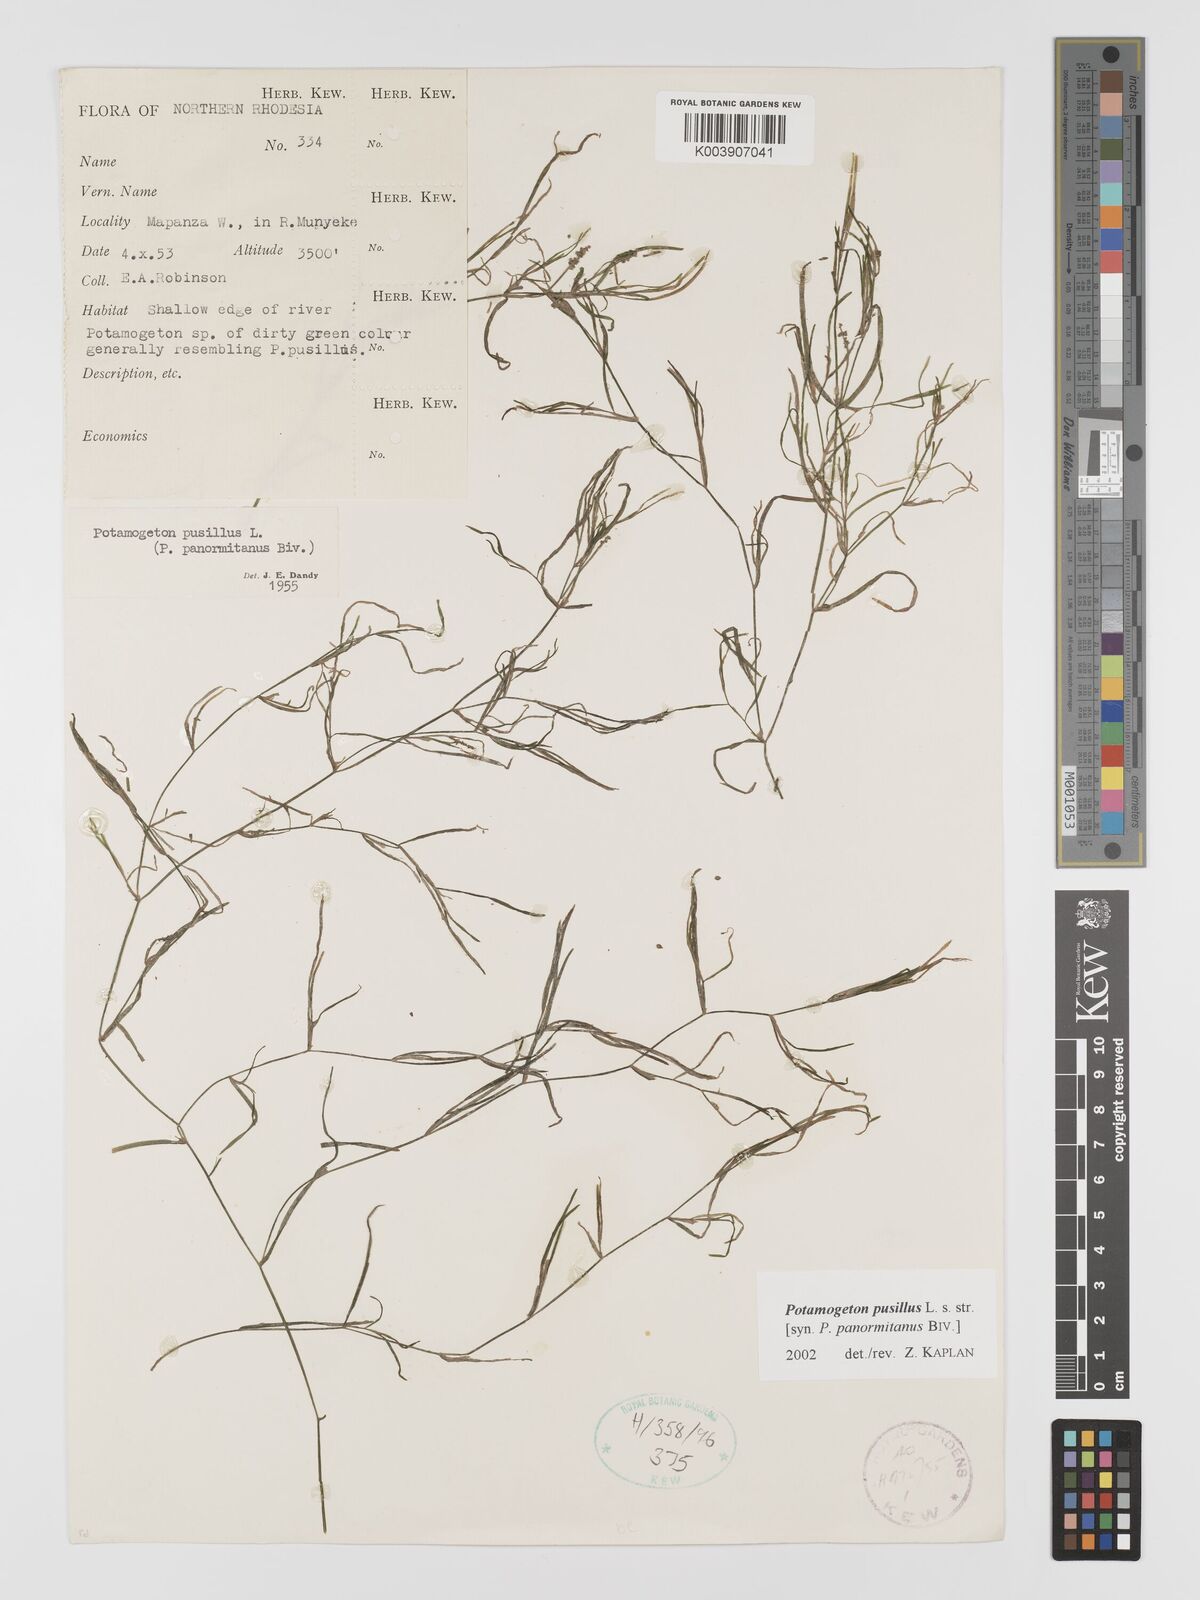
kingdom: Plantae
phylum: Tracheophyta
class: Liliopsida
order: Alismatales
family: Potamogetonaceae
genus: Potamogeton
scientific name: Potamogeton pusillus
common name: Lesser pondweed
